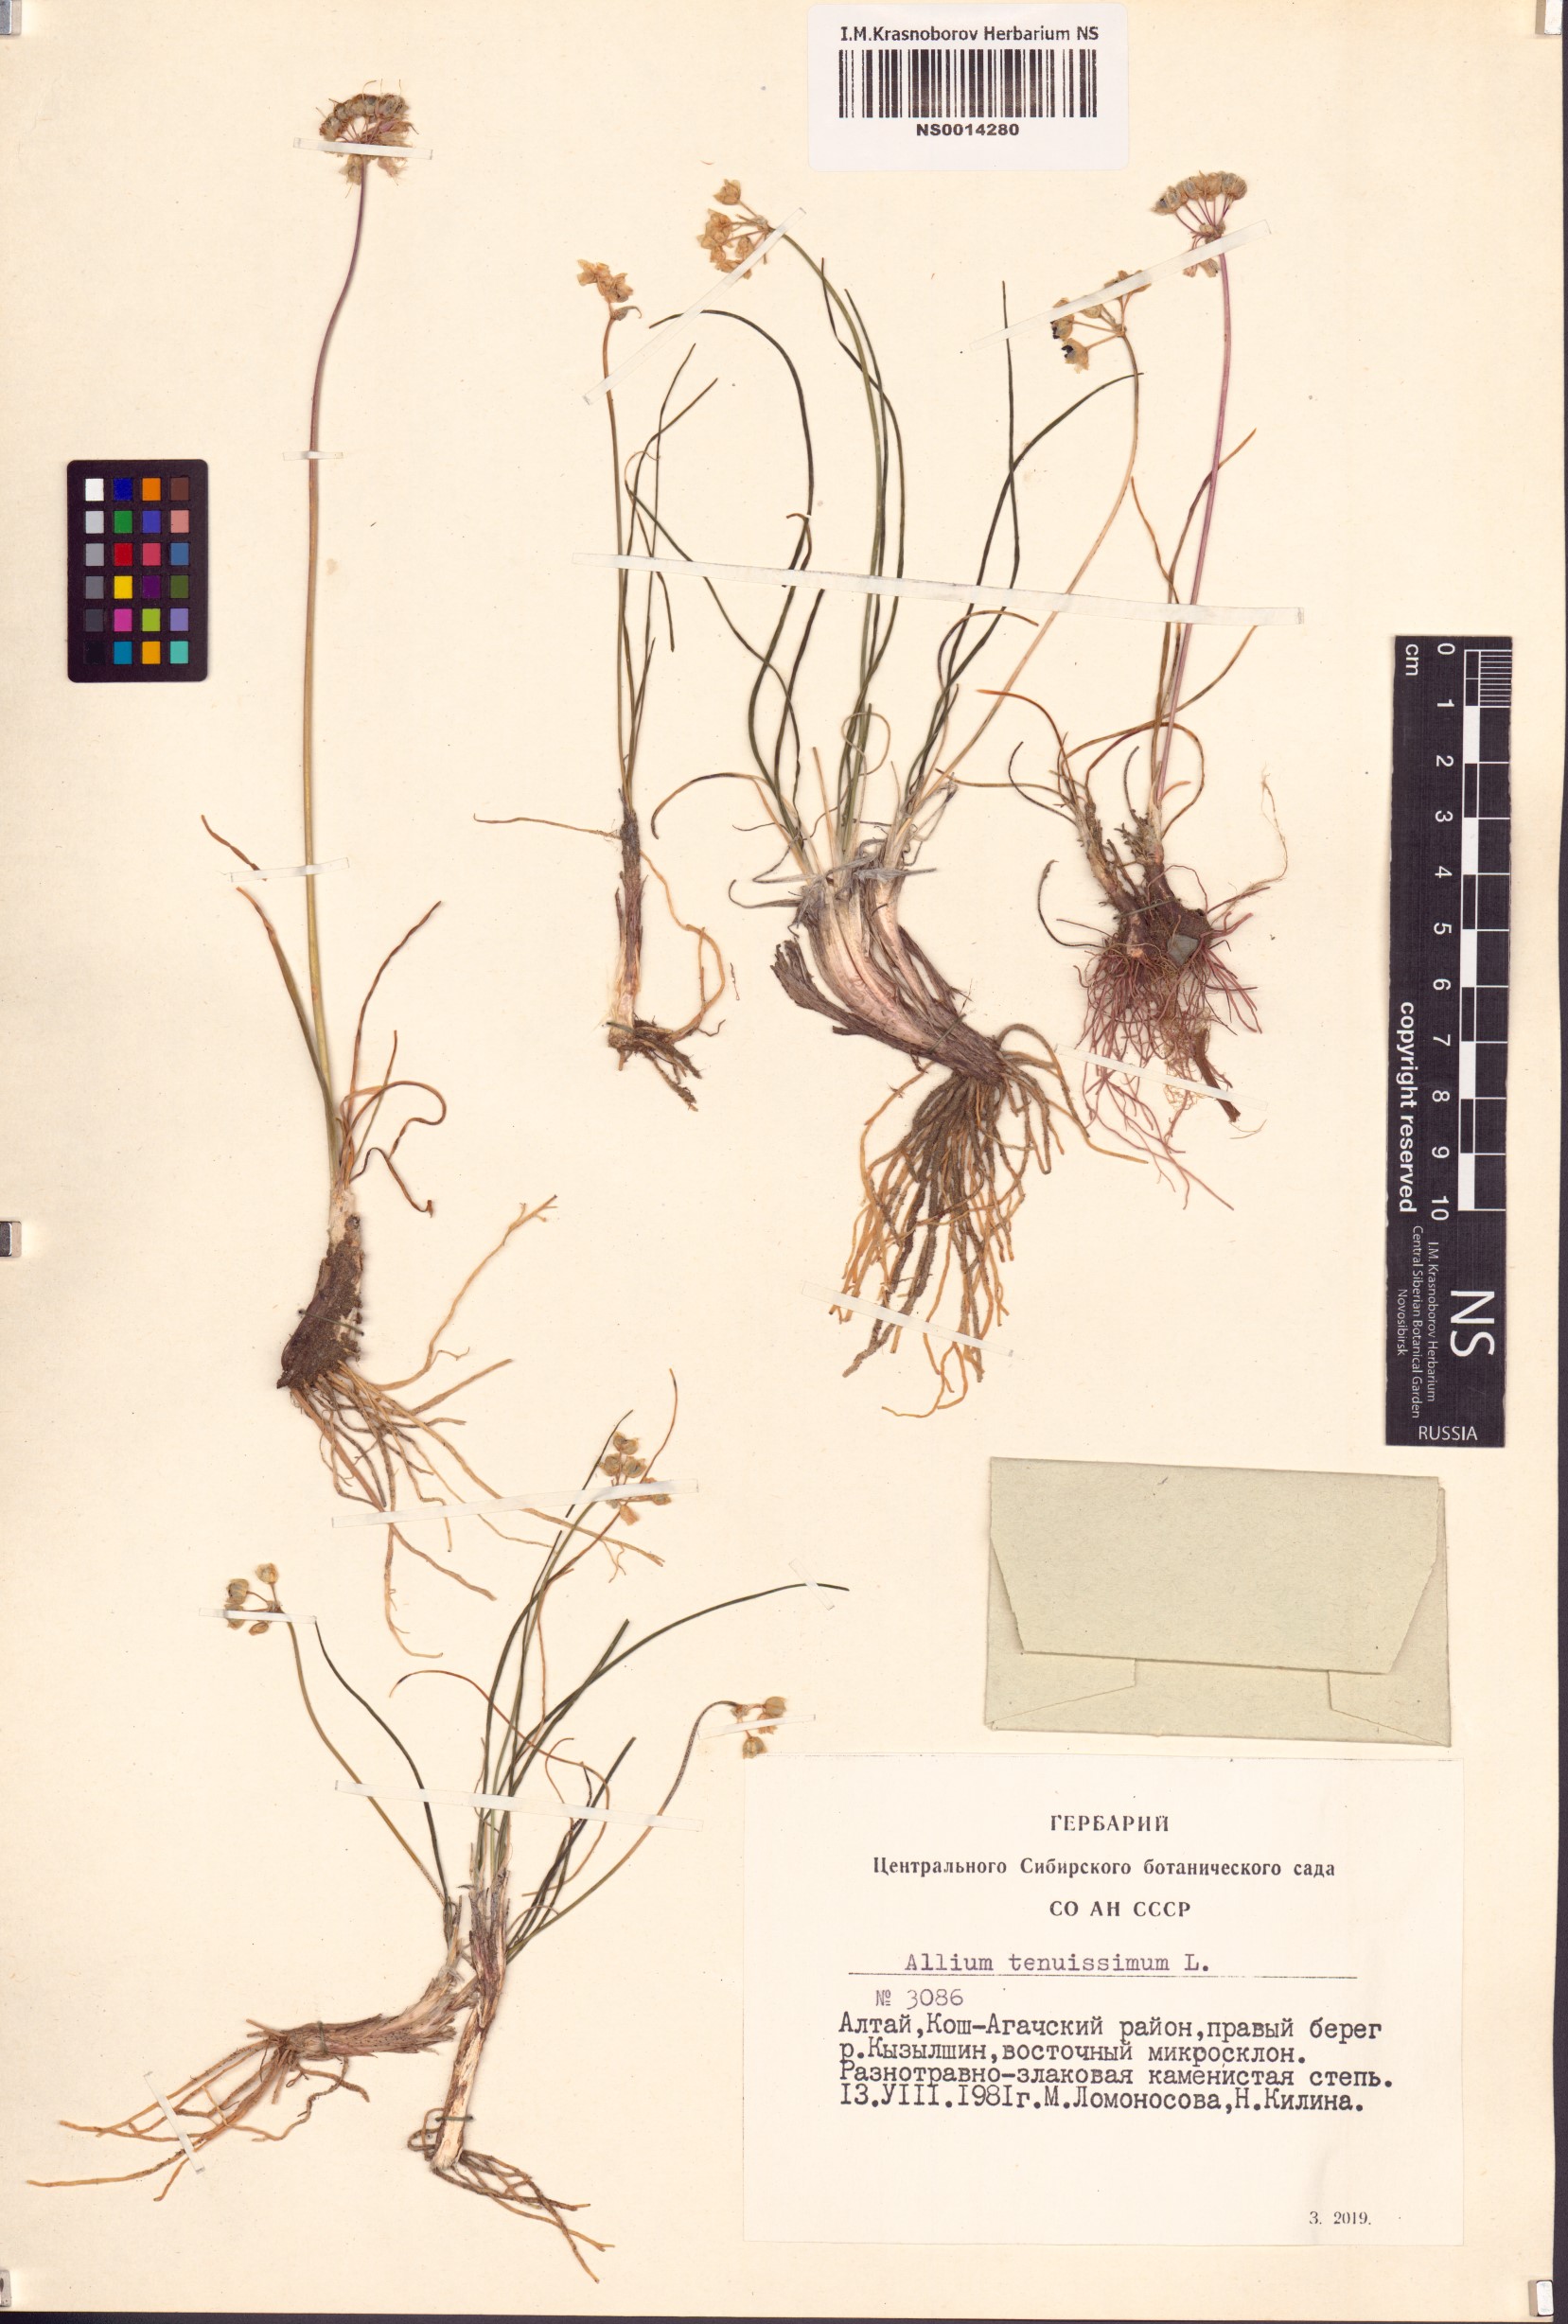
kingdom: Plantae
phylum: Tracheophyta
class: Liliopsida
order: Asparagales
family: Amaryllidaceae
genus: Allium
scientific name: Allium tenuissimum
